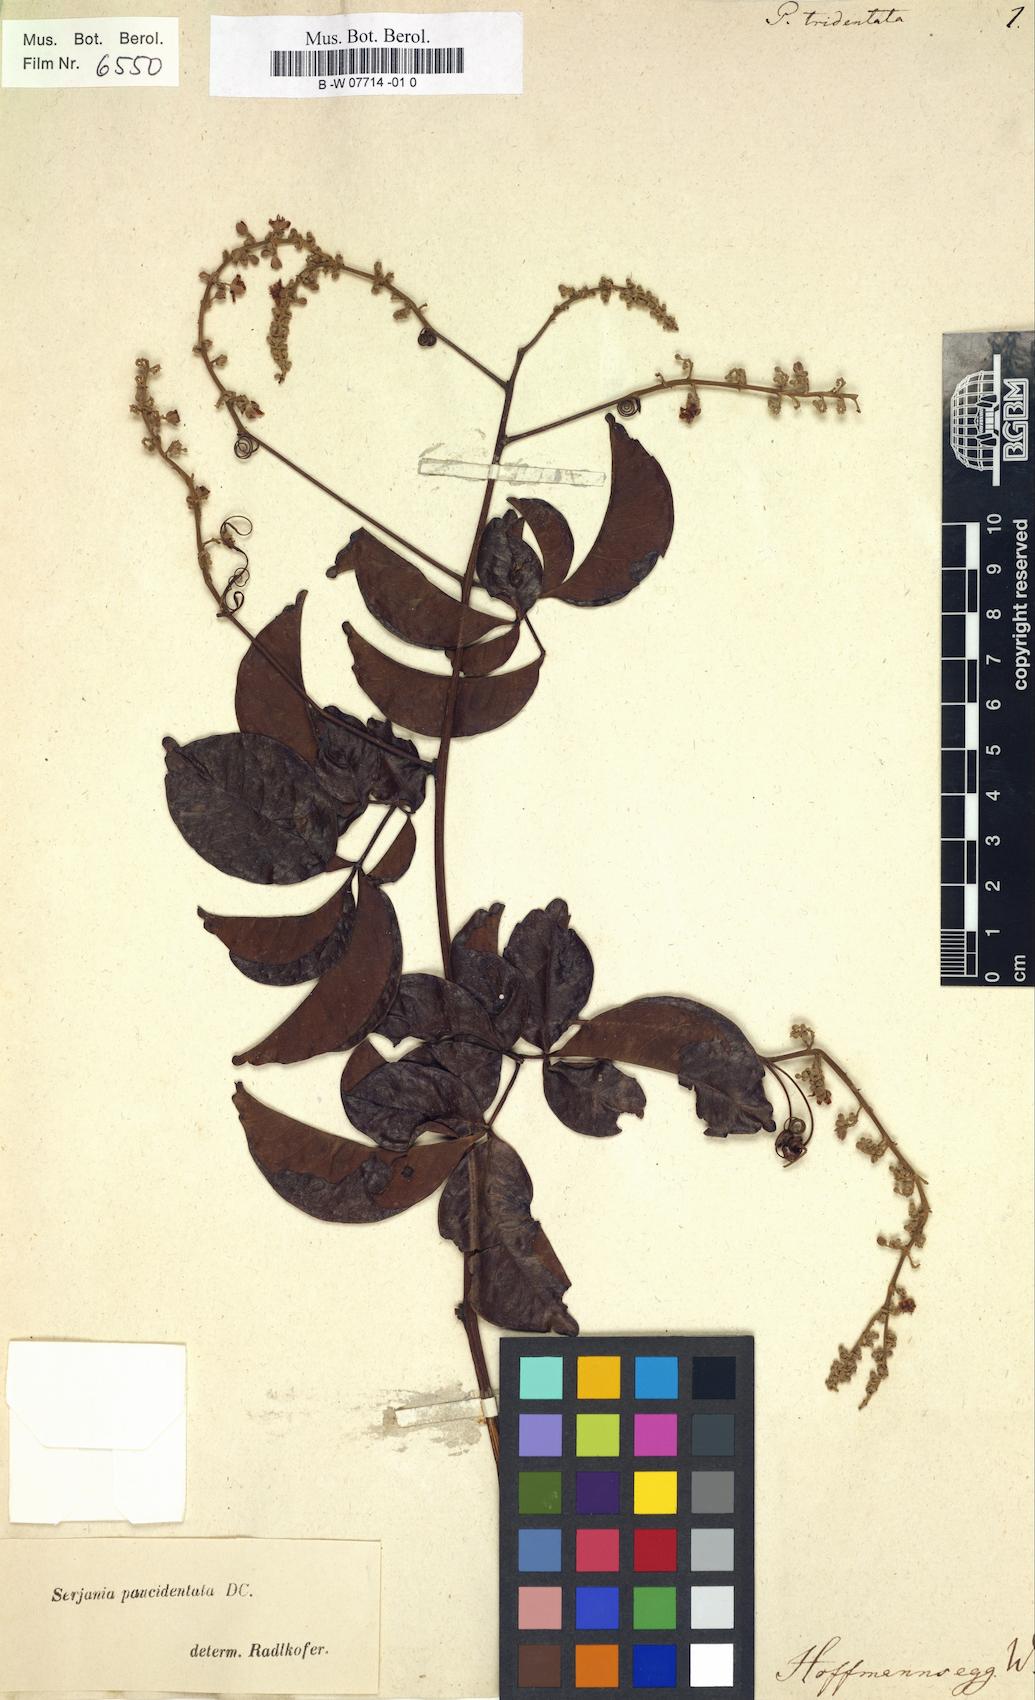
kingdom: Plantae
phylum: Tracheophyta
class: Magnoliopsida
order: Sapindales
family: Sapindaceae
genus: Paullinia
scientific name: Paullinia
